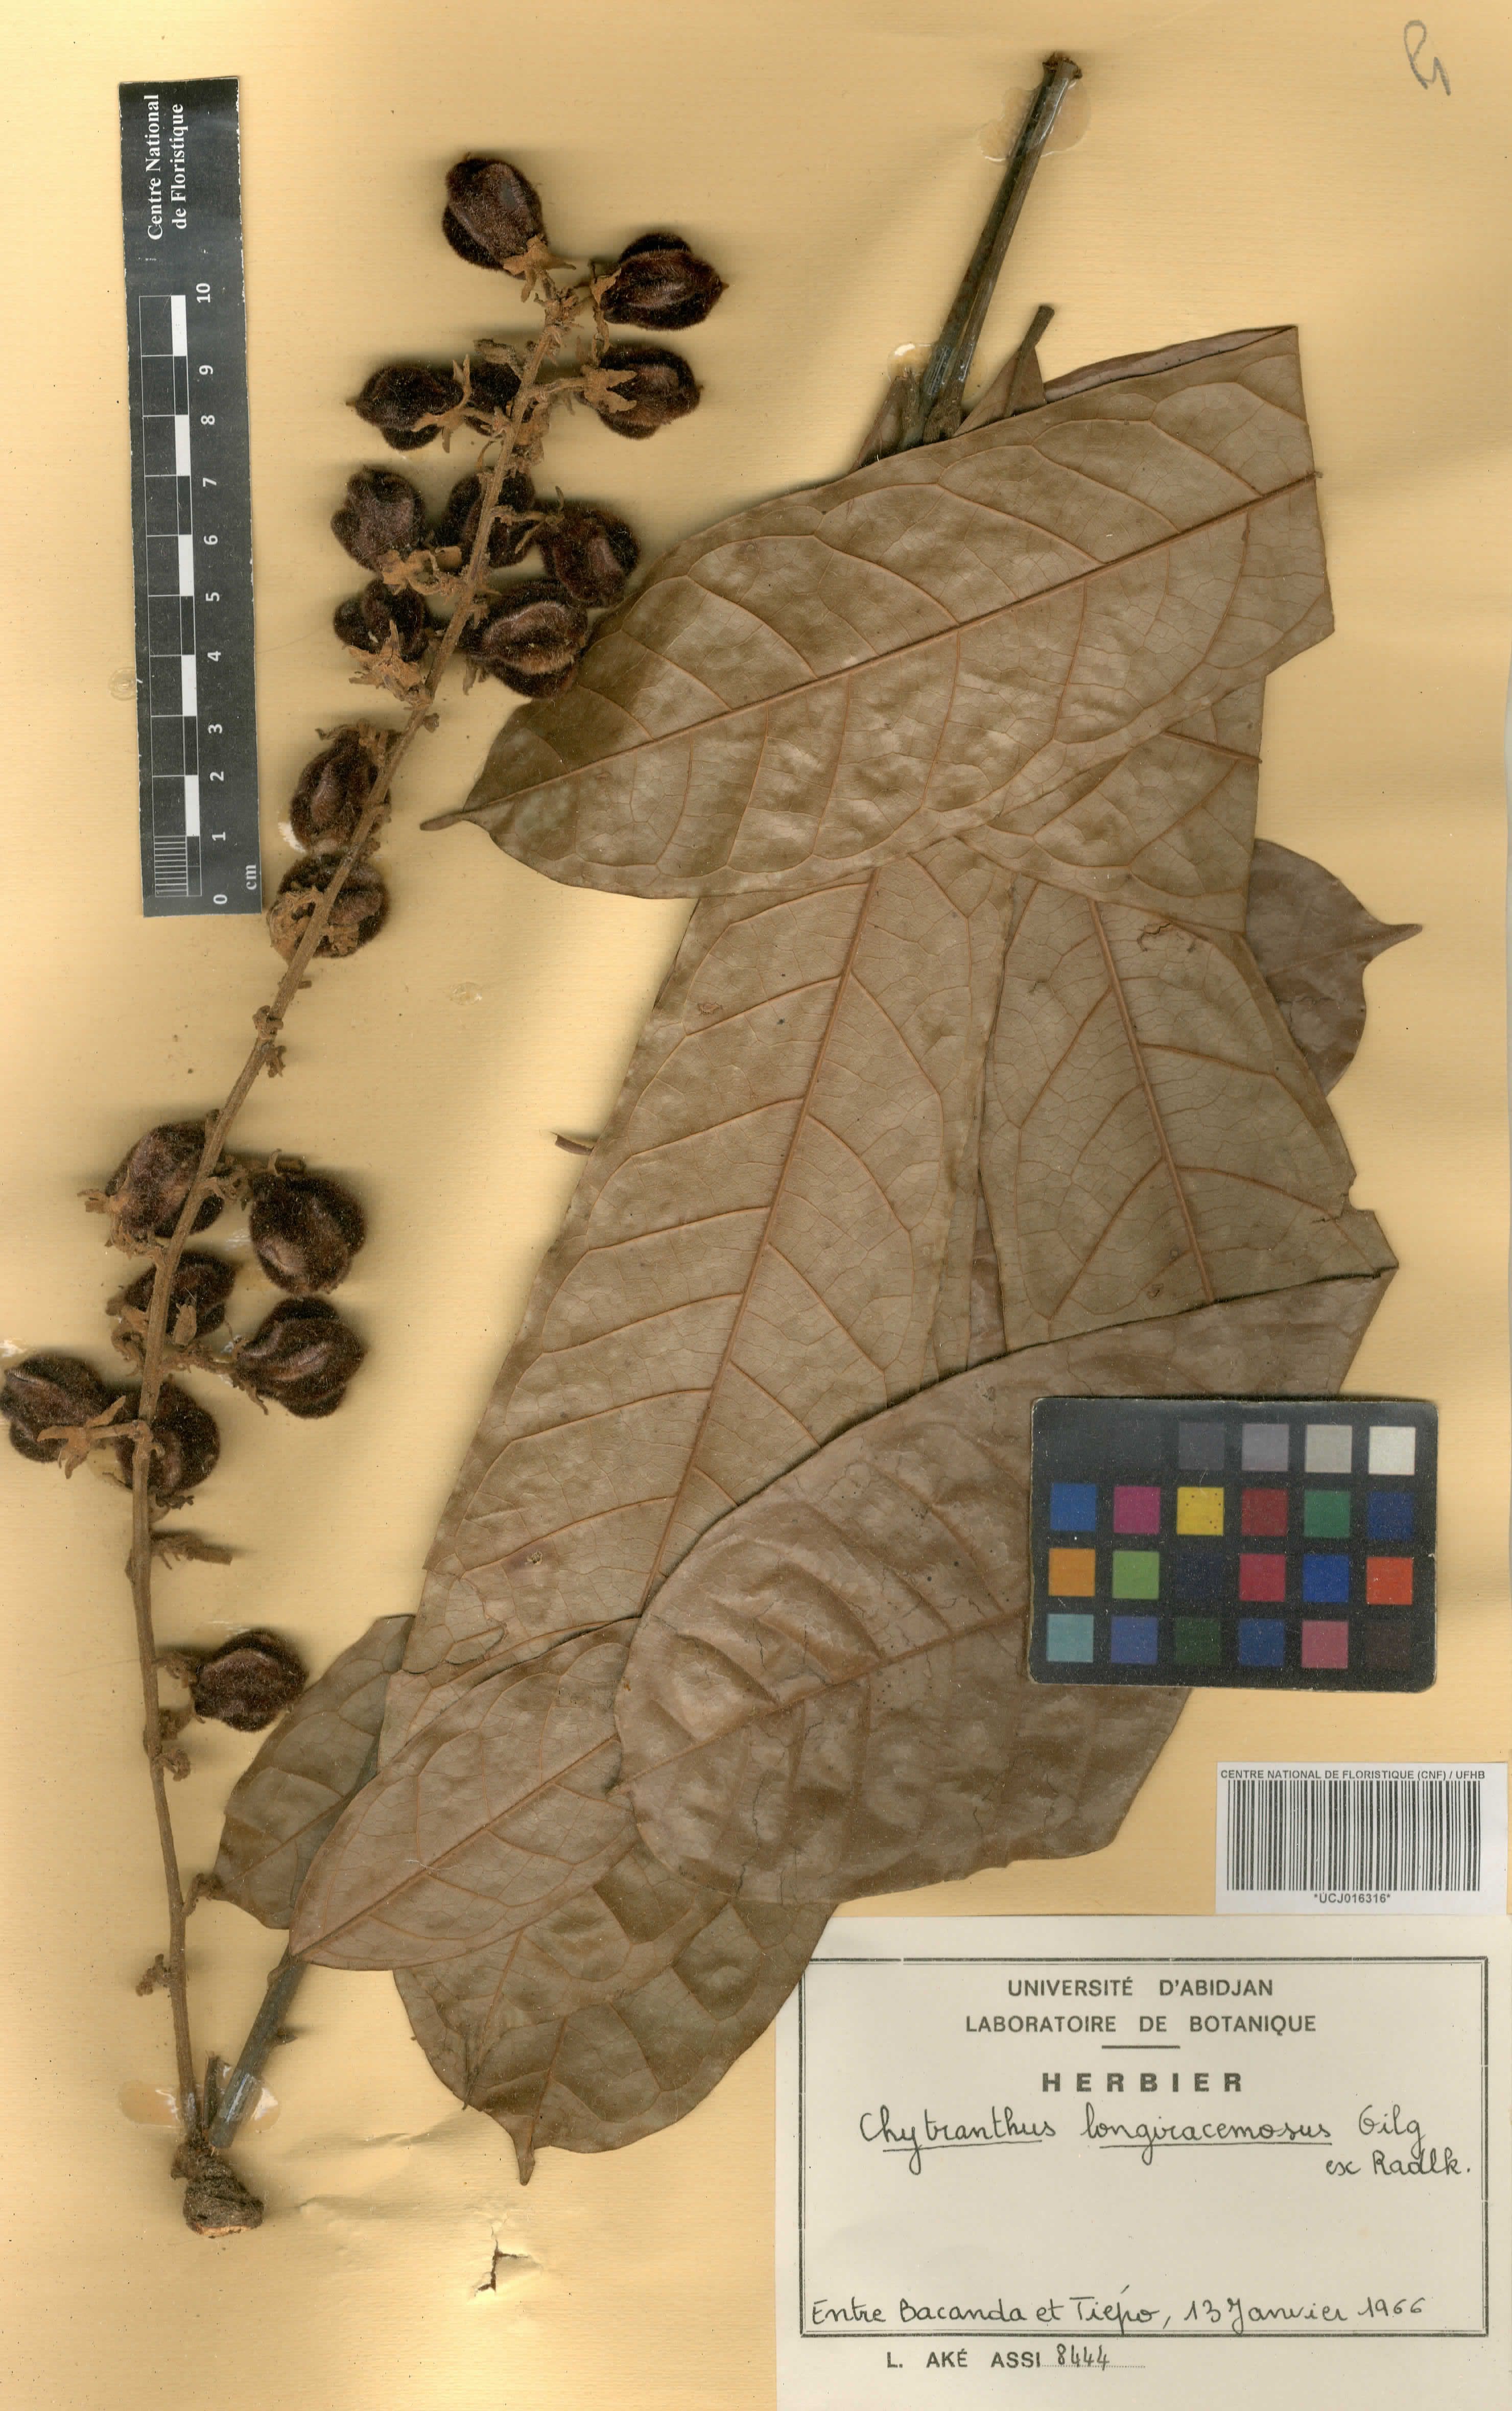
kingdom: Plantae
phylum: Tracheophyta
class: Magnoliopsida
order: Sapindales
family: Sapindaceae
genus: Chytranthus
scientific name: Chytranthus carneus
